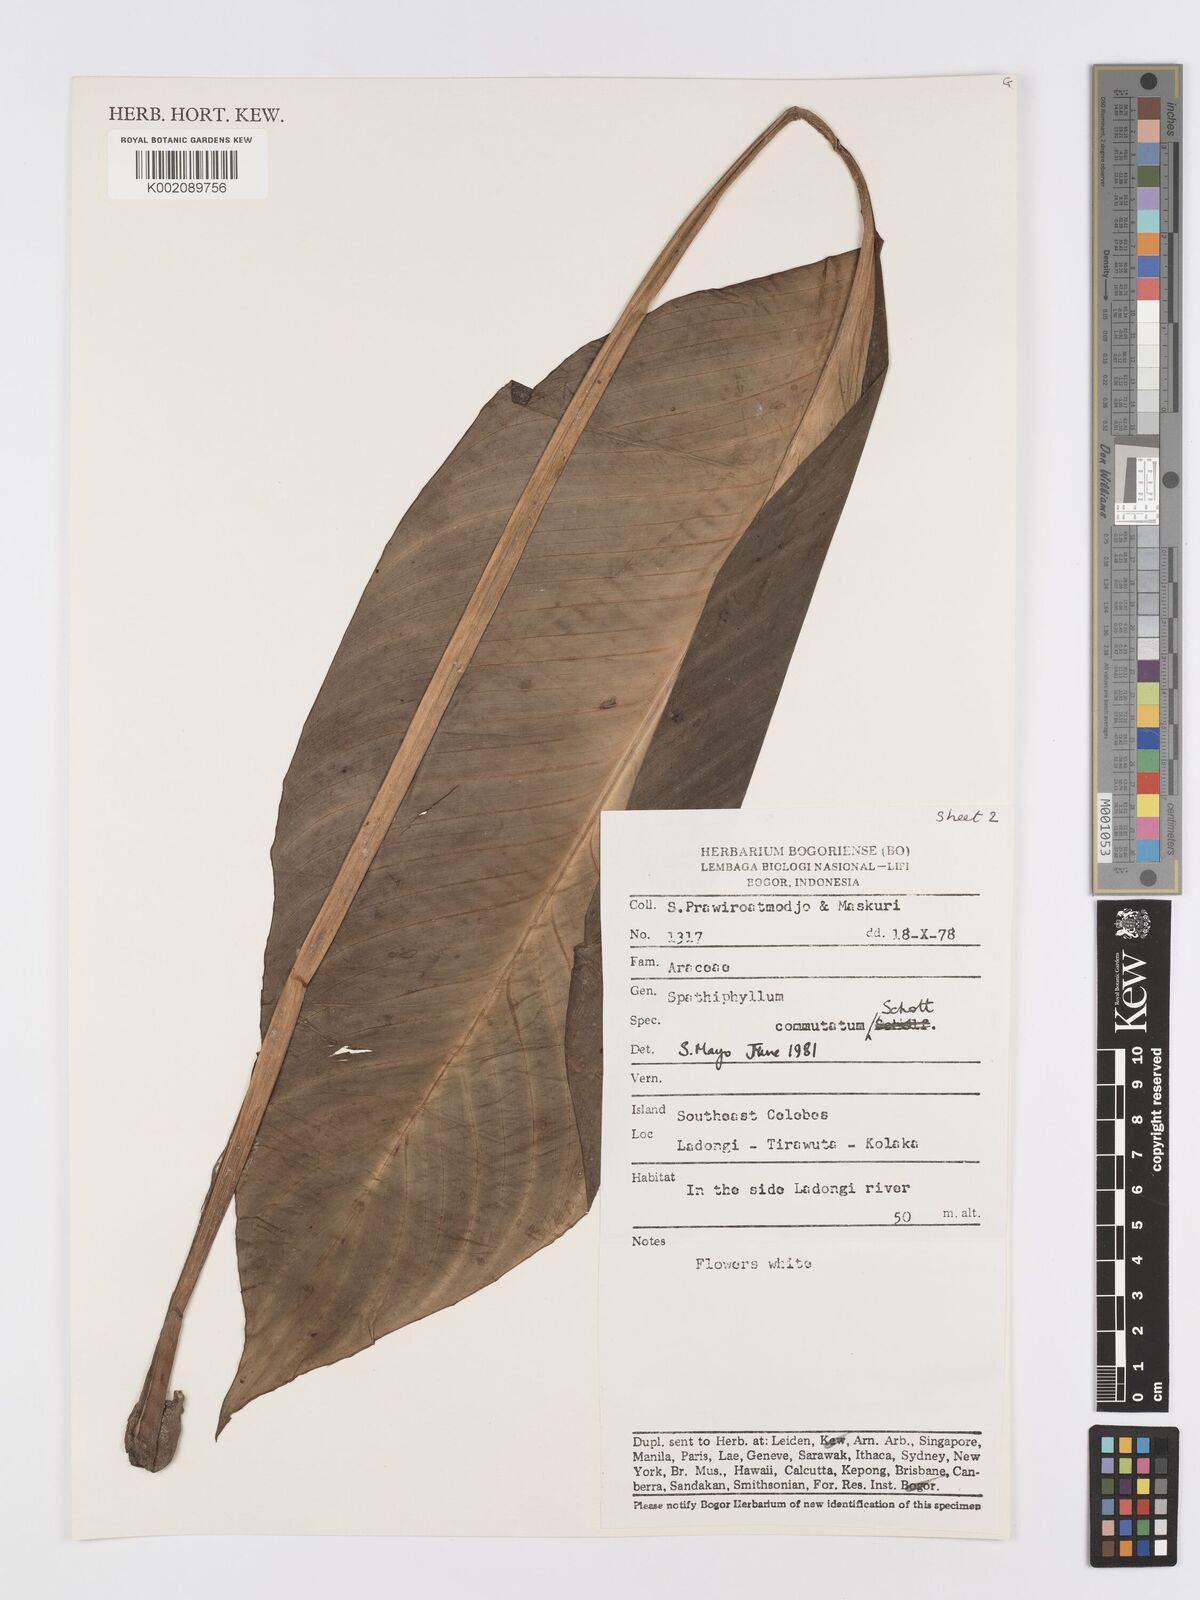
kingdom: Plantae
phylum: Tracheophyta
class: Liliopsida
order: Alismatales
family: Araceae
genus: Spathiphyllum
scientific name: Spathiphyllum commutatum
